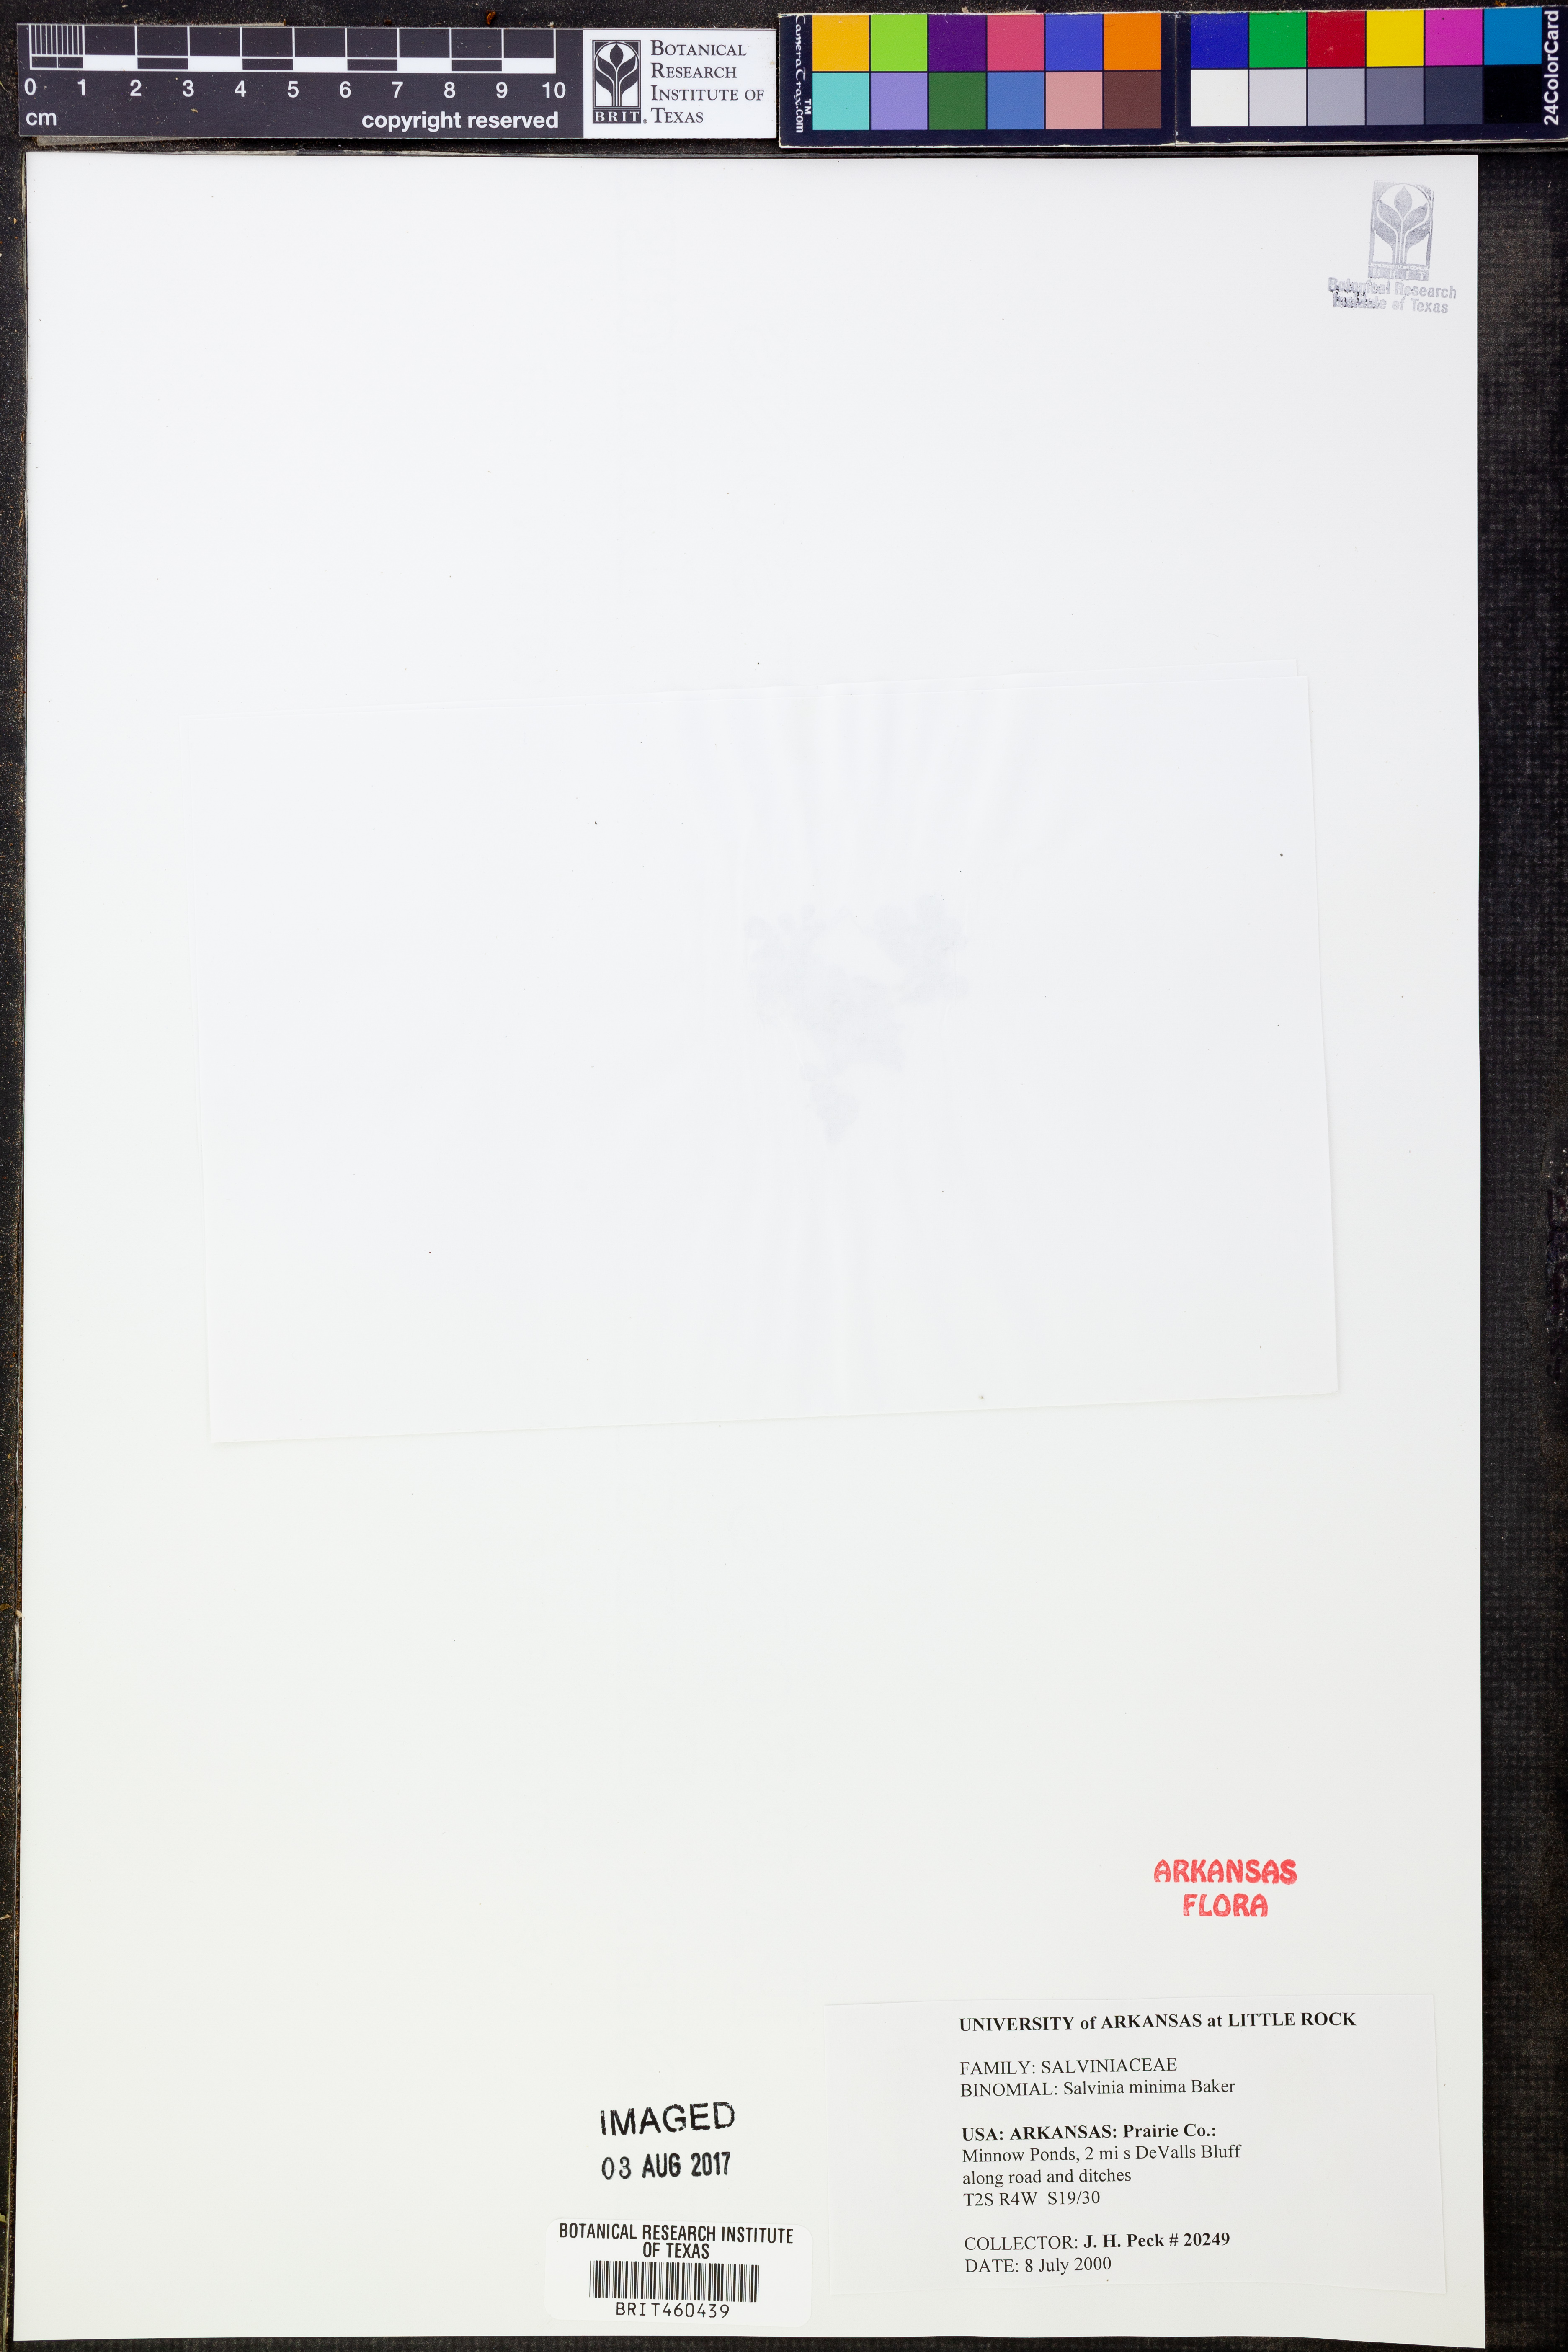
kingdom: Plantae
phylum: Tracheophyta
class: Polypodiopsida
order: Salviniales
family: Salviniaceae
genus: Salvinia
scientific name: Salvinia minima
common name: Water spangles
